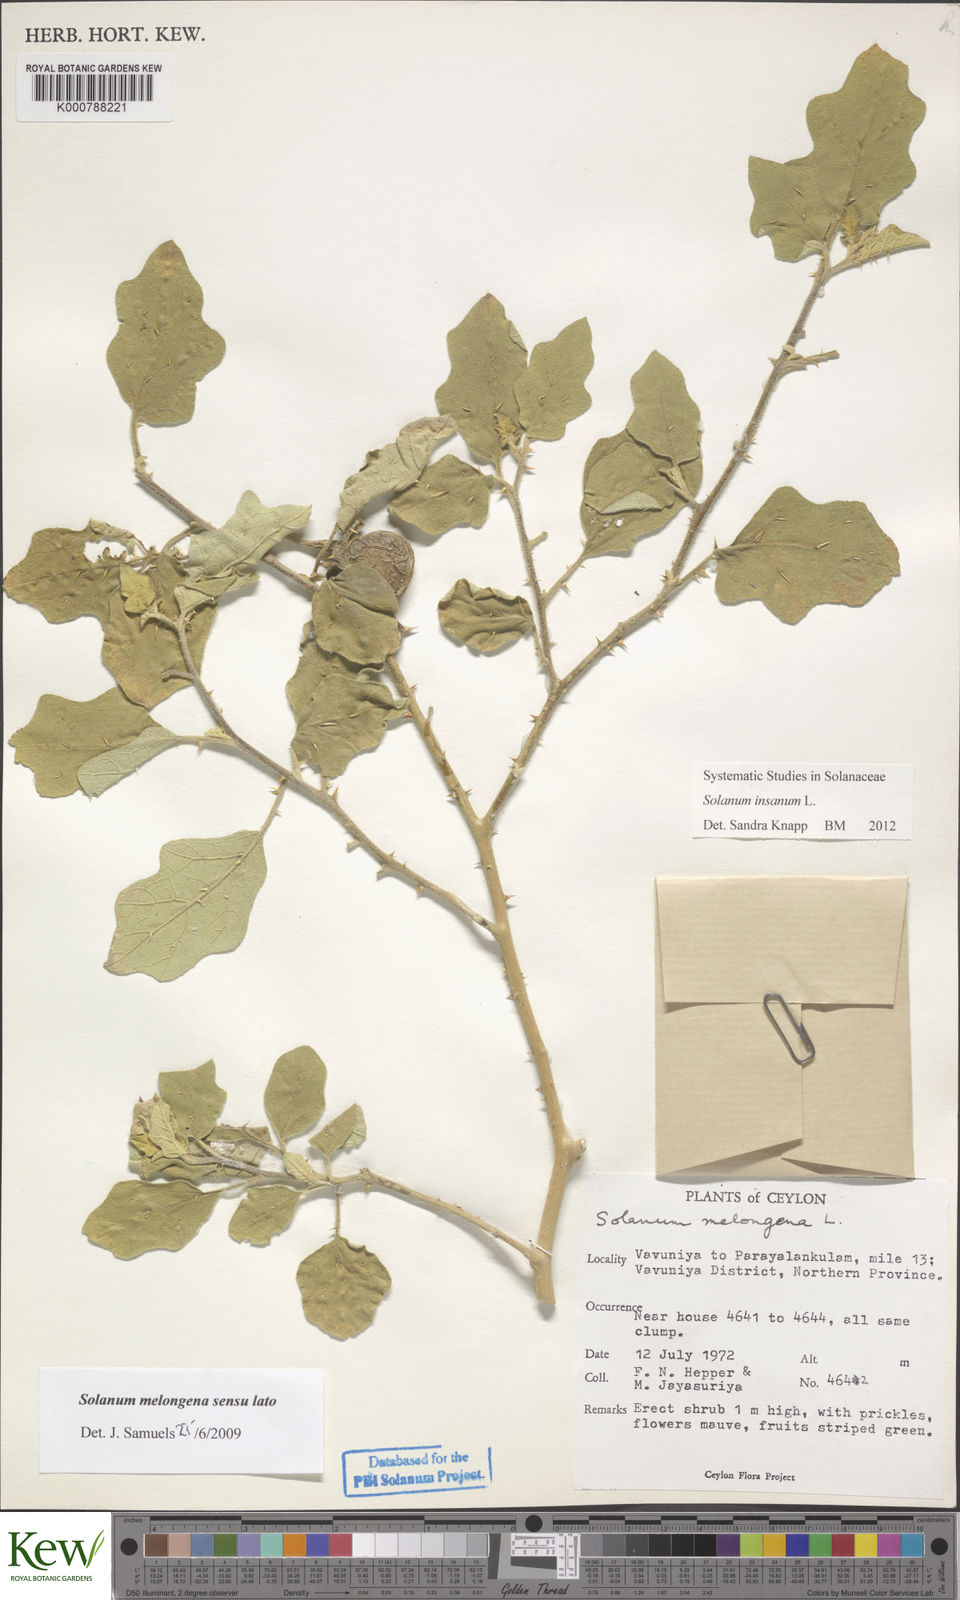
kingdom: Plantae
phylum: Tracheophyta
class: Magnoliopsida
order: Solanales
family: Solanaceae
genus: Solanum
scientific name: Solanum insanum
